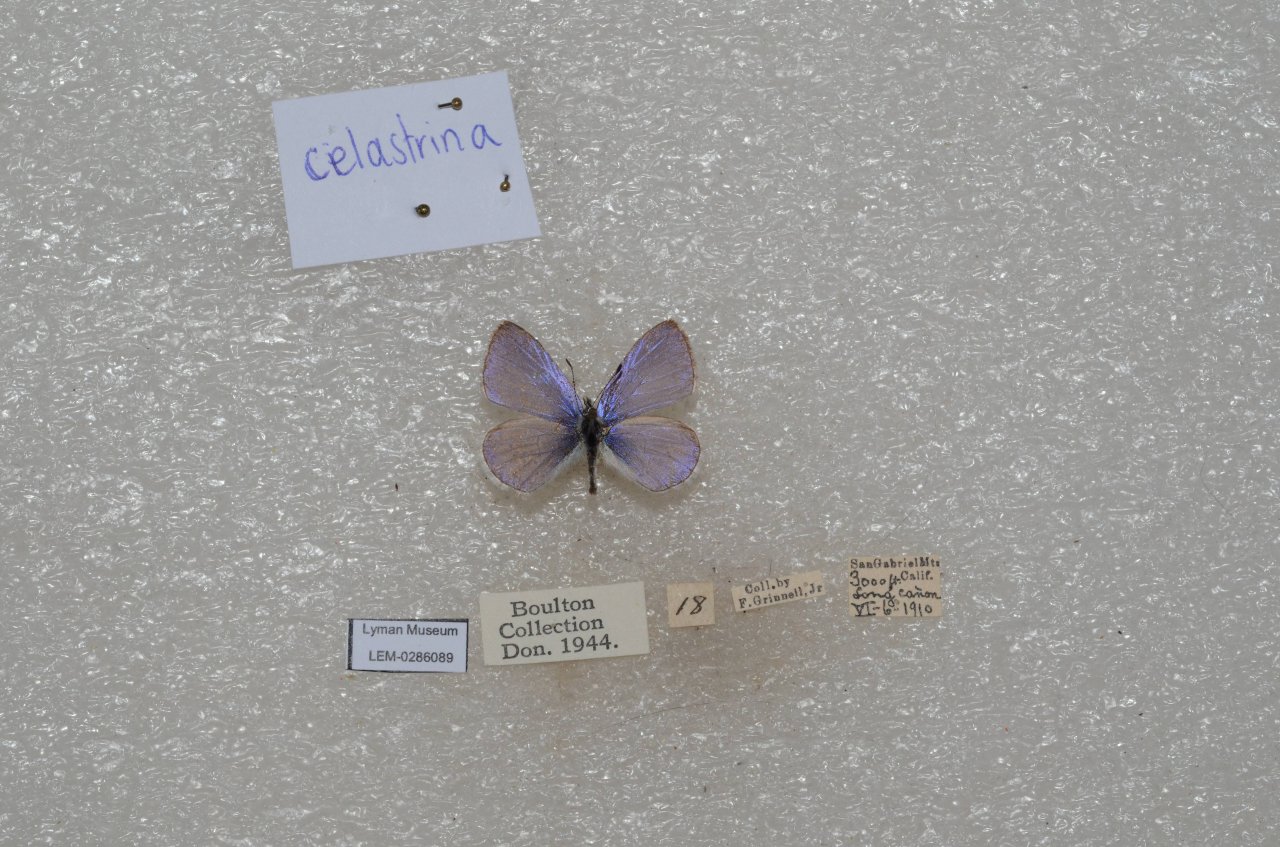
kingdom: Animalia
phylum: Arthropoda
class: Insecta
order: Lepidoptera
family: Lycaenidae
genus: Celastrina
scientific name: Celastrina
